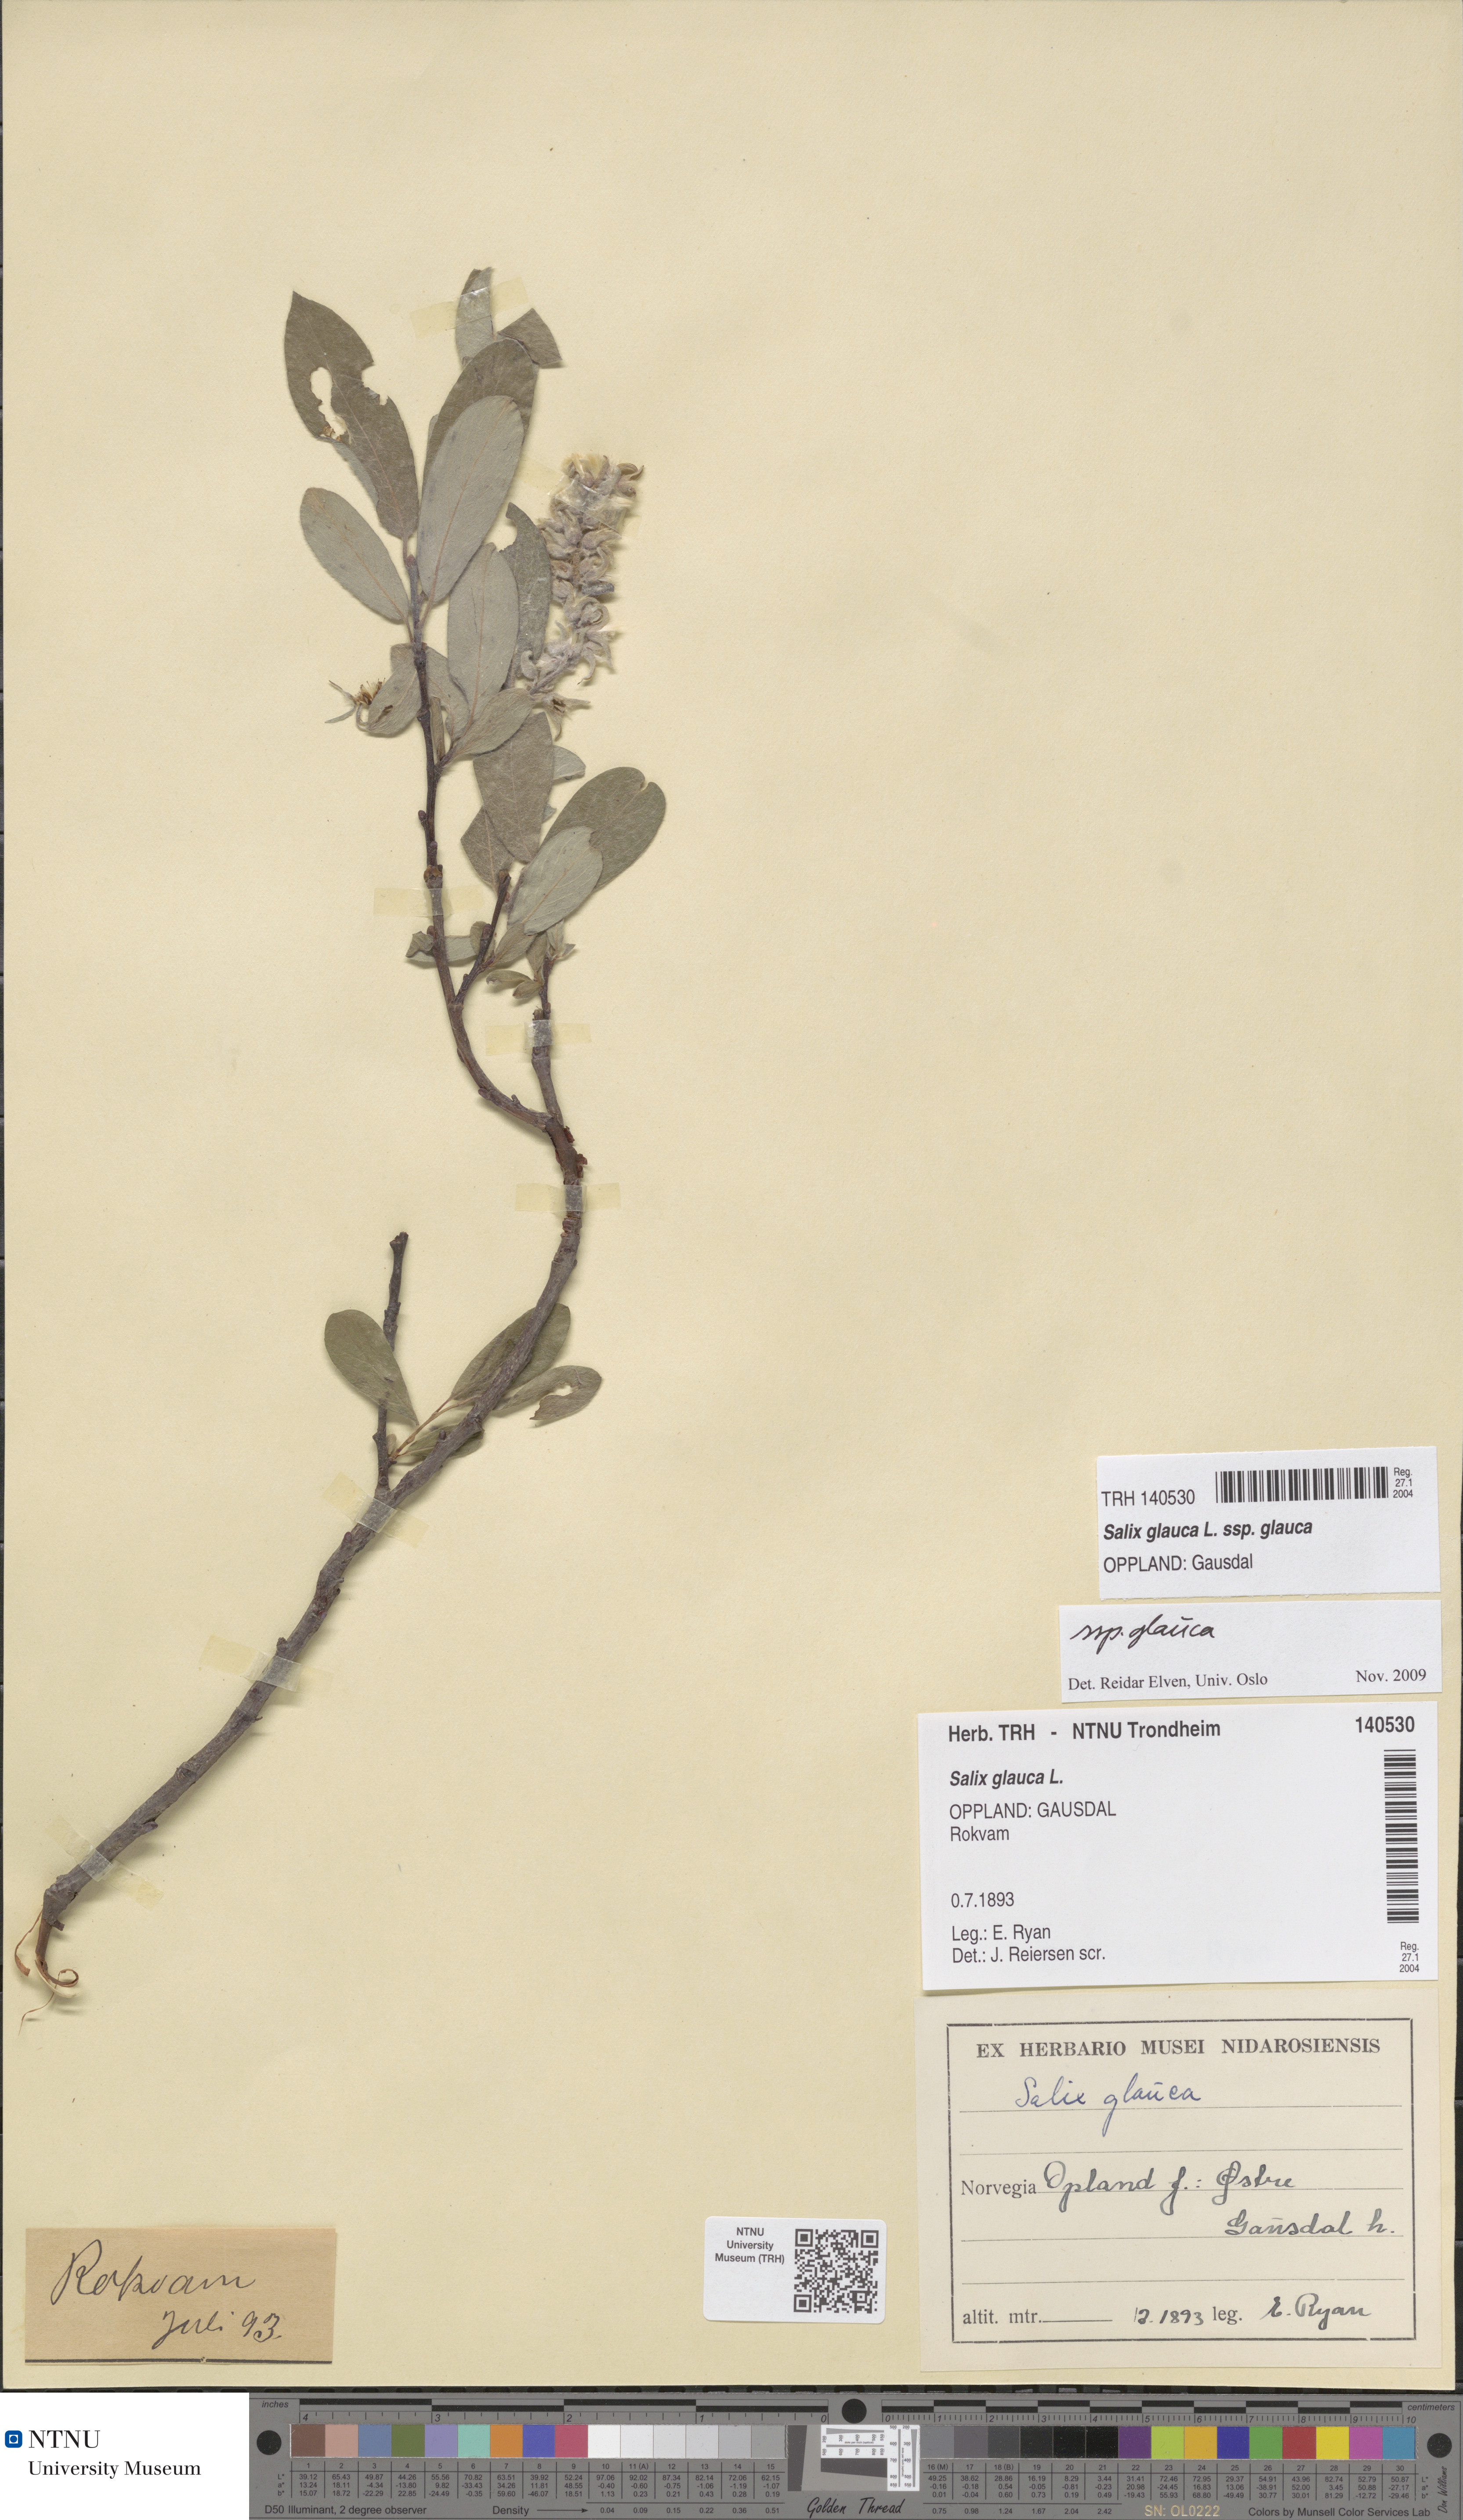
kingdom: Plantae
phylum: Tracheophyta
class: Magnoliopsida
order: Malpighiales
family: Salicaceae
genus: Salix
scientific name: Salix glauca
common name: Glaucous willow
